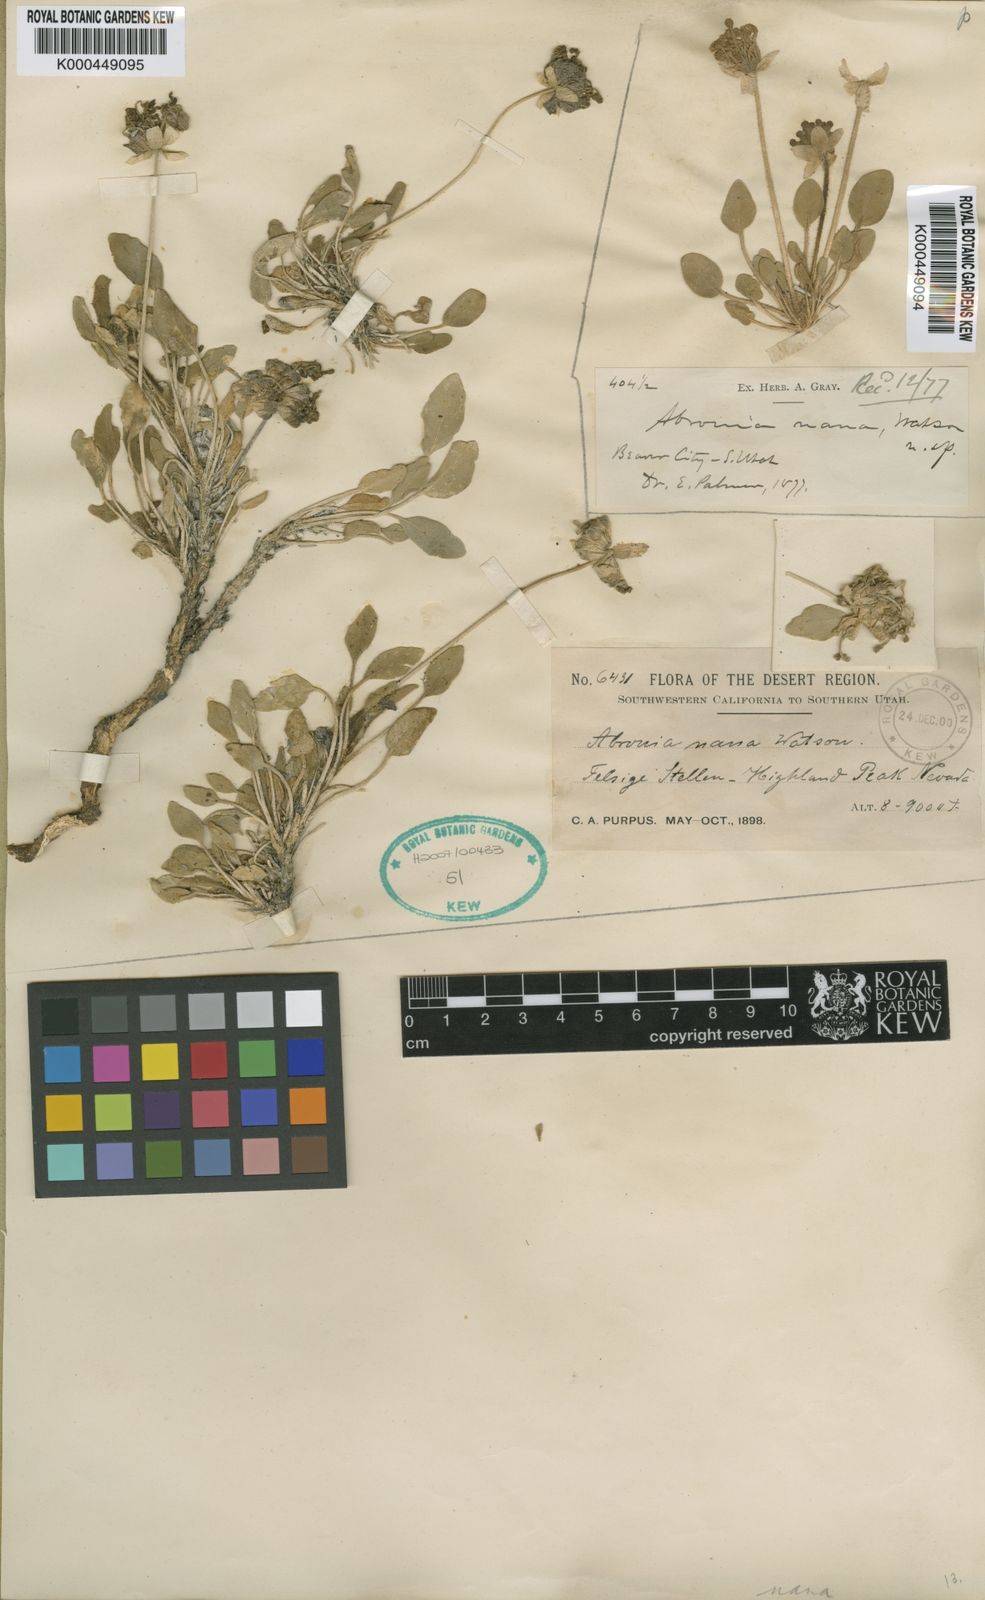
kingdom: Plantae
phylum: Tracheophyta
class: Magnoliopsida
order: Caryophyllales
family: Nyctaginaceae
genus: Abronia
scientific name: Abronia nana
